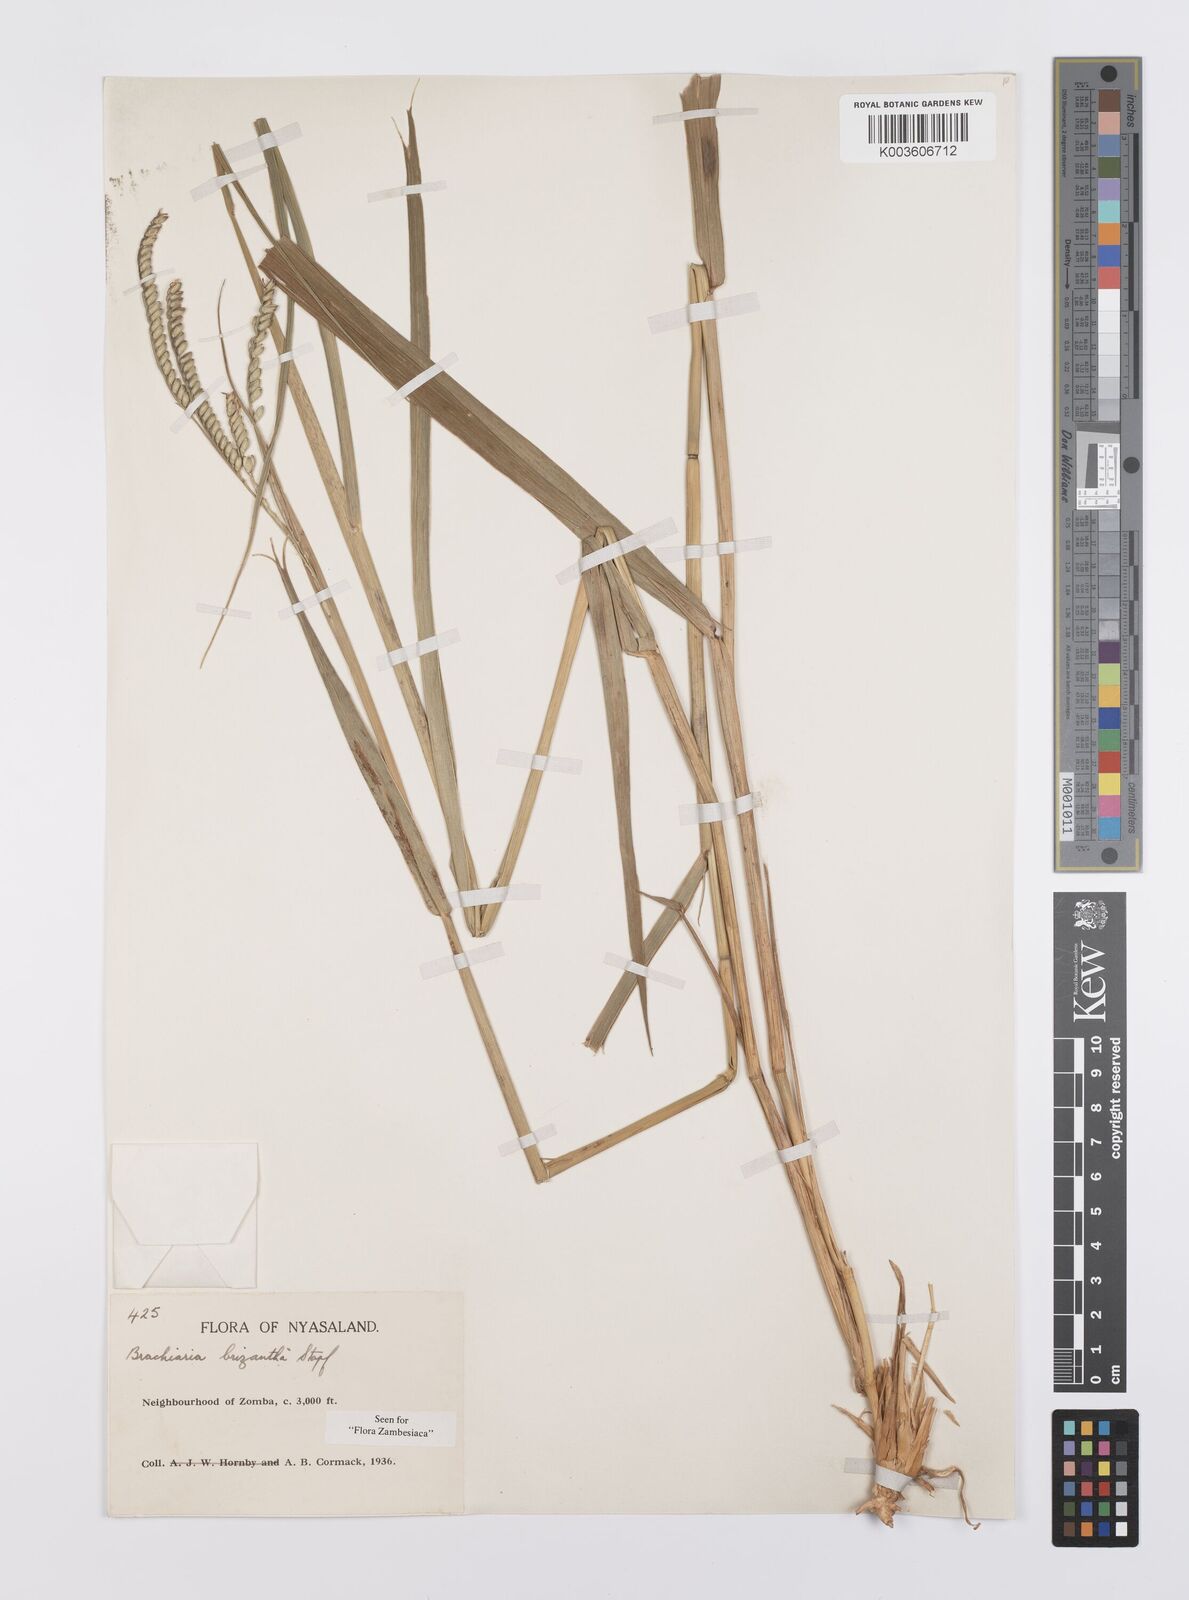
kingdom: Plantae
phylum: Tracheophyta
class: Liliopsida
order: Poales
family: Poaceae
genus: Urochloa
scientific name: Urochloa brizantha
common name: Palisade signalgrass
